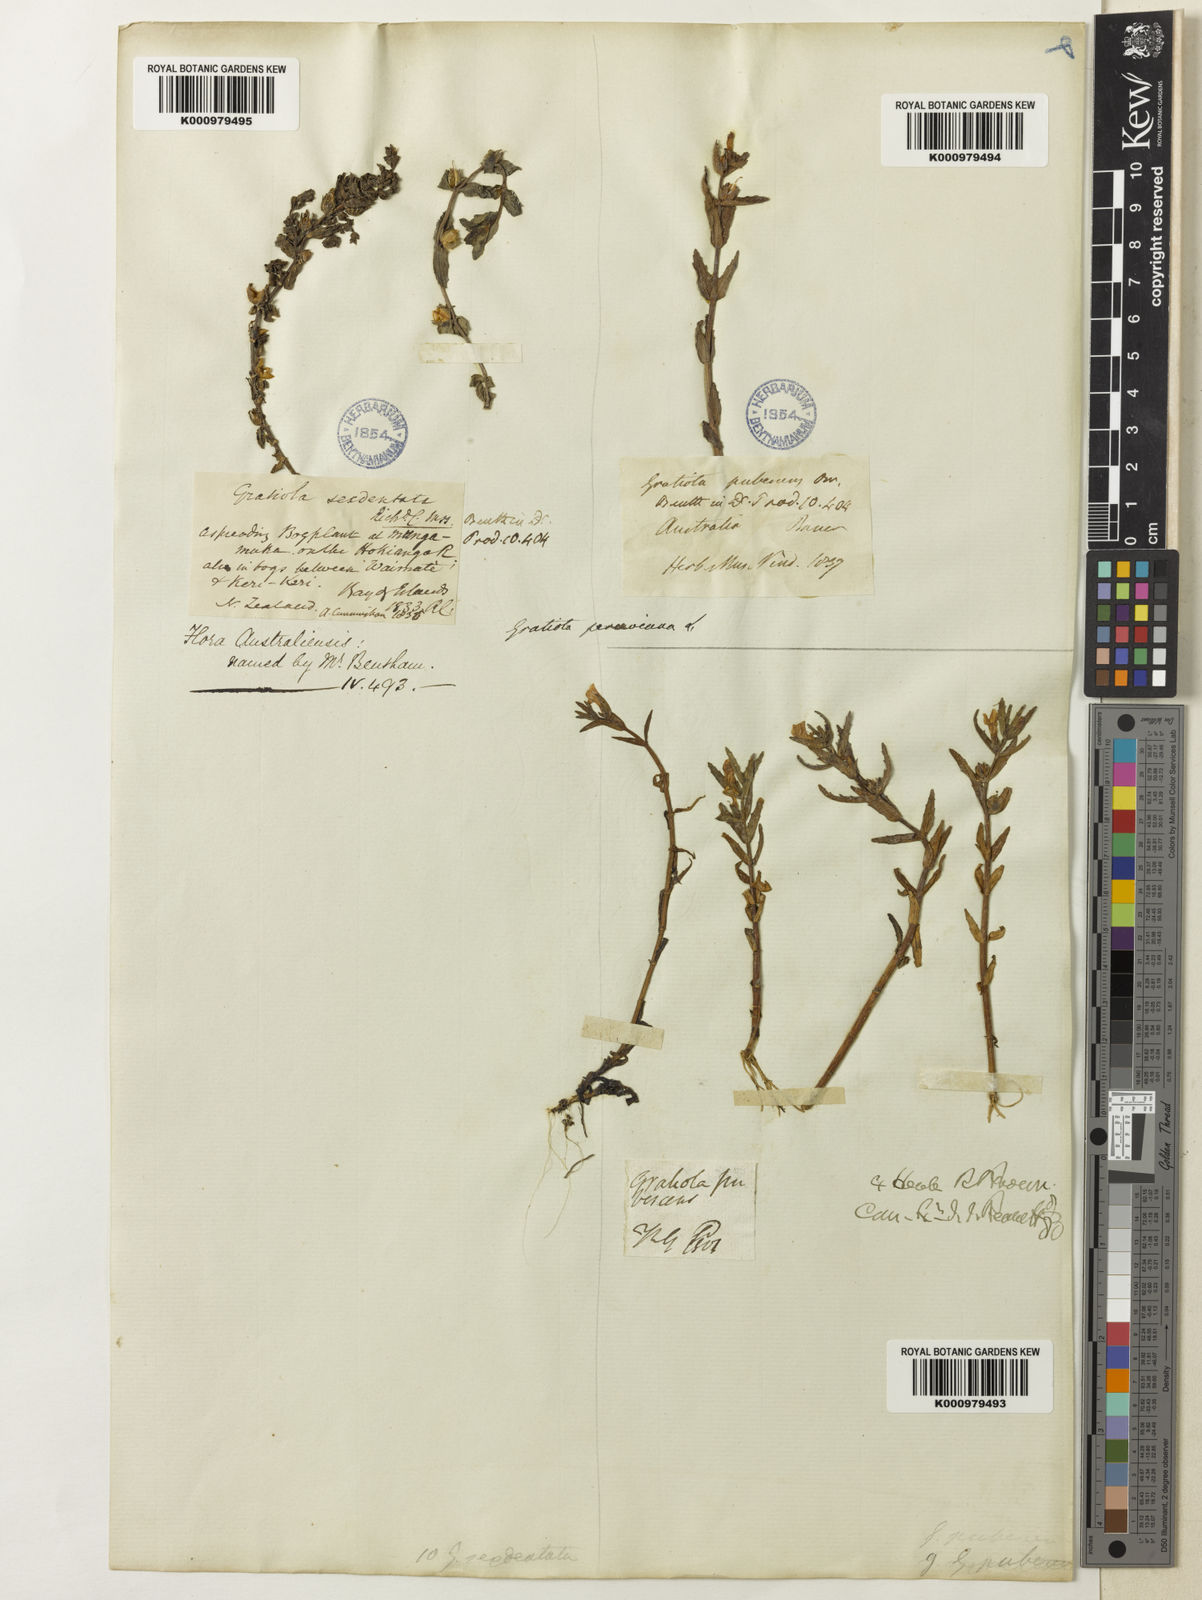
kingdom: Plantae
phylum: Tracheophyta
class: Magnoliopsida
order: Lamiales
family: Plantaginaceae
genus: Gratiola
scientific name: Gratiola peruviana
